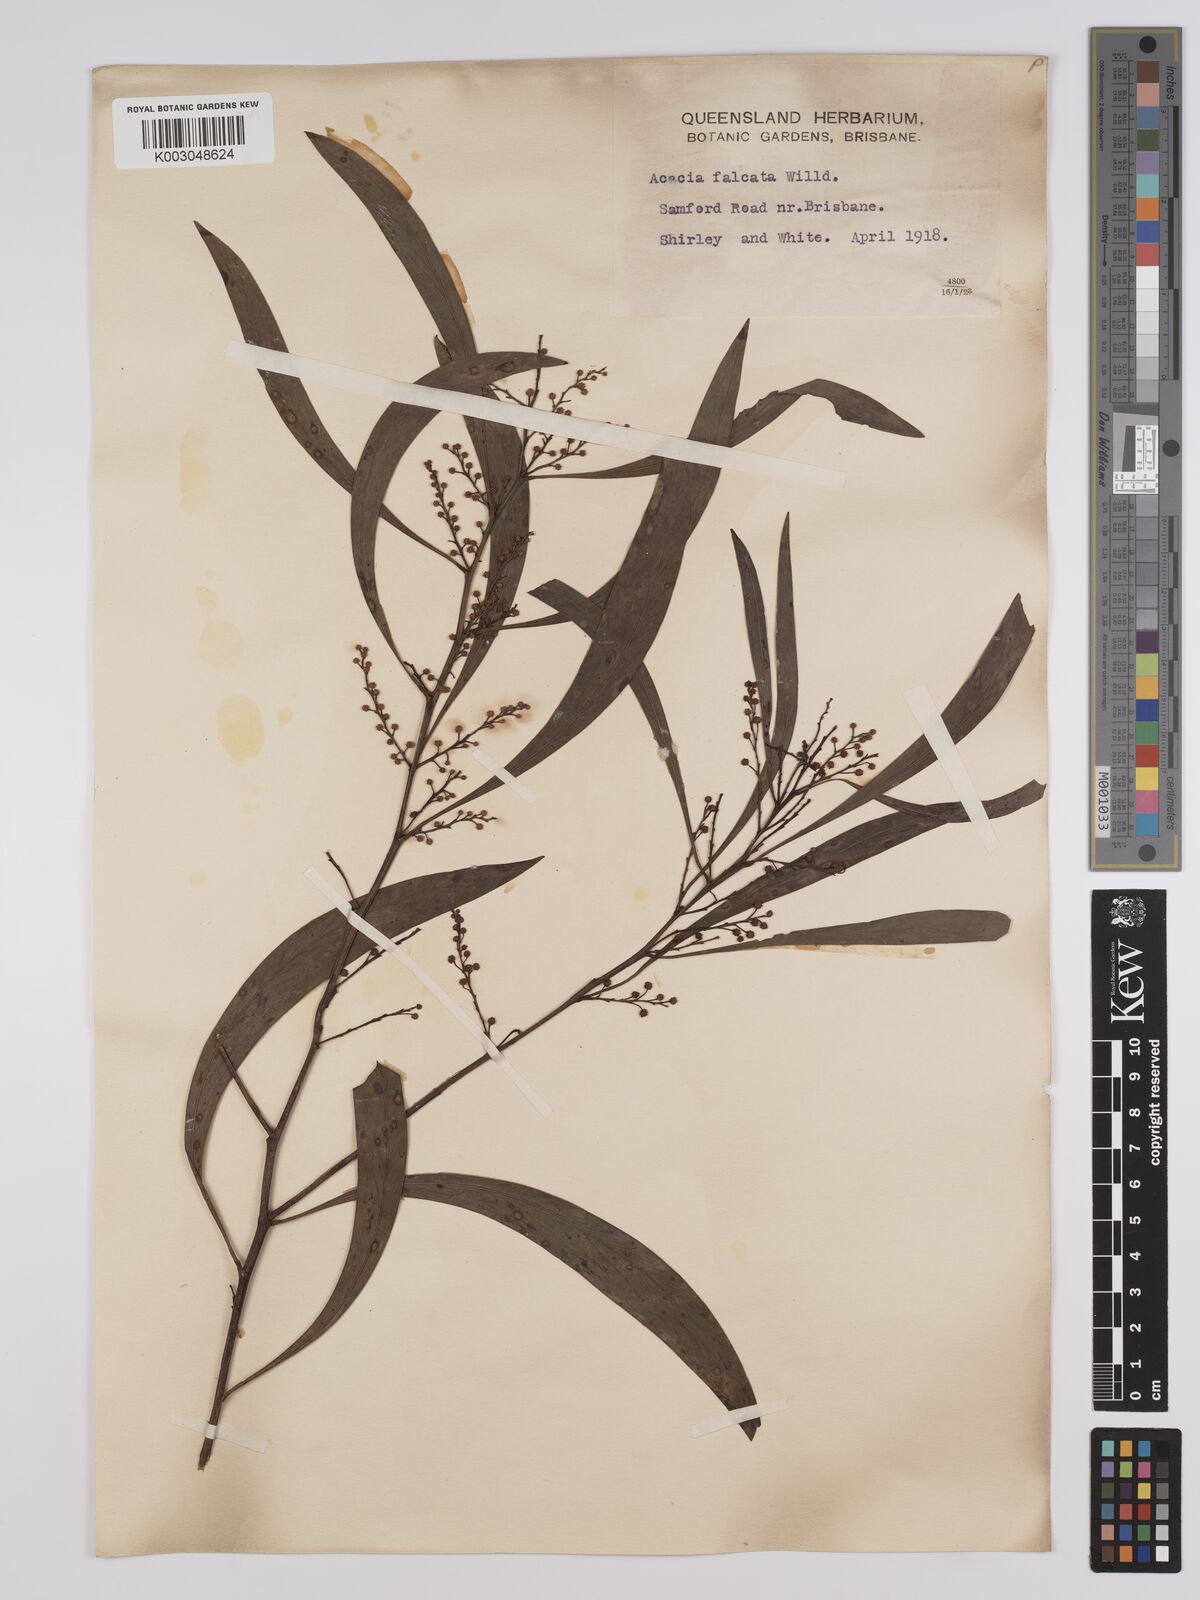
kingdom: Plantae
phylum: Tracheophyta
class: Magnoliopsida
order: Fabales
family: Fabaceae
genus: Acacia
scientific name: Acacia falcata
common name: Burra acacia
